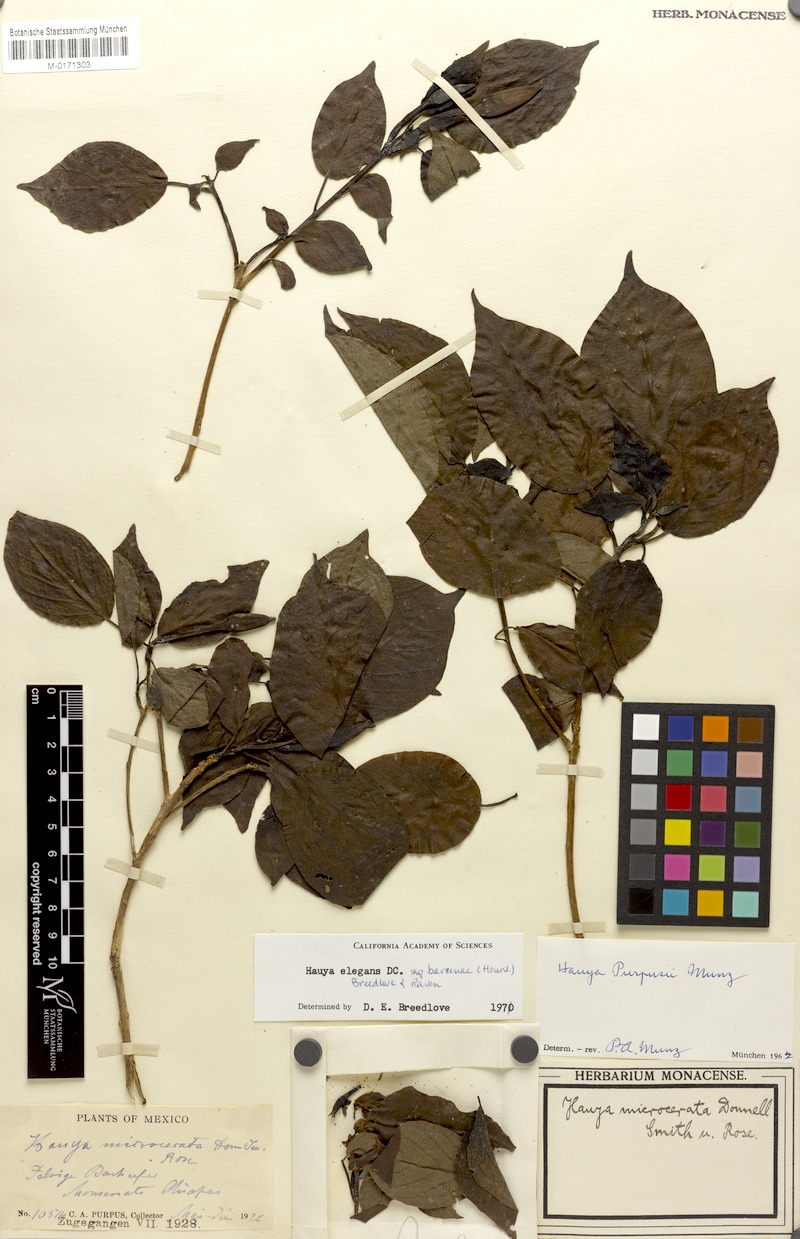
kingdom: Plantae
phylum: Tracheophyta
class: Magnoliopsida
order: Myrtales
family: Onagraceae
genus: Hauya
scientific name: Hauya elegans
